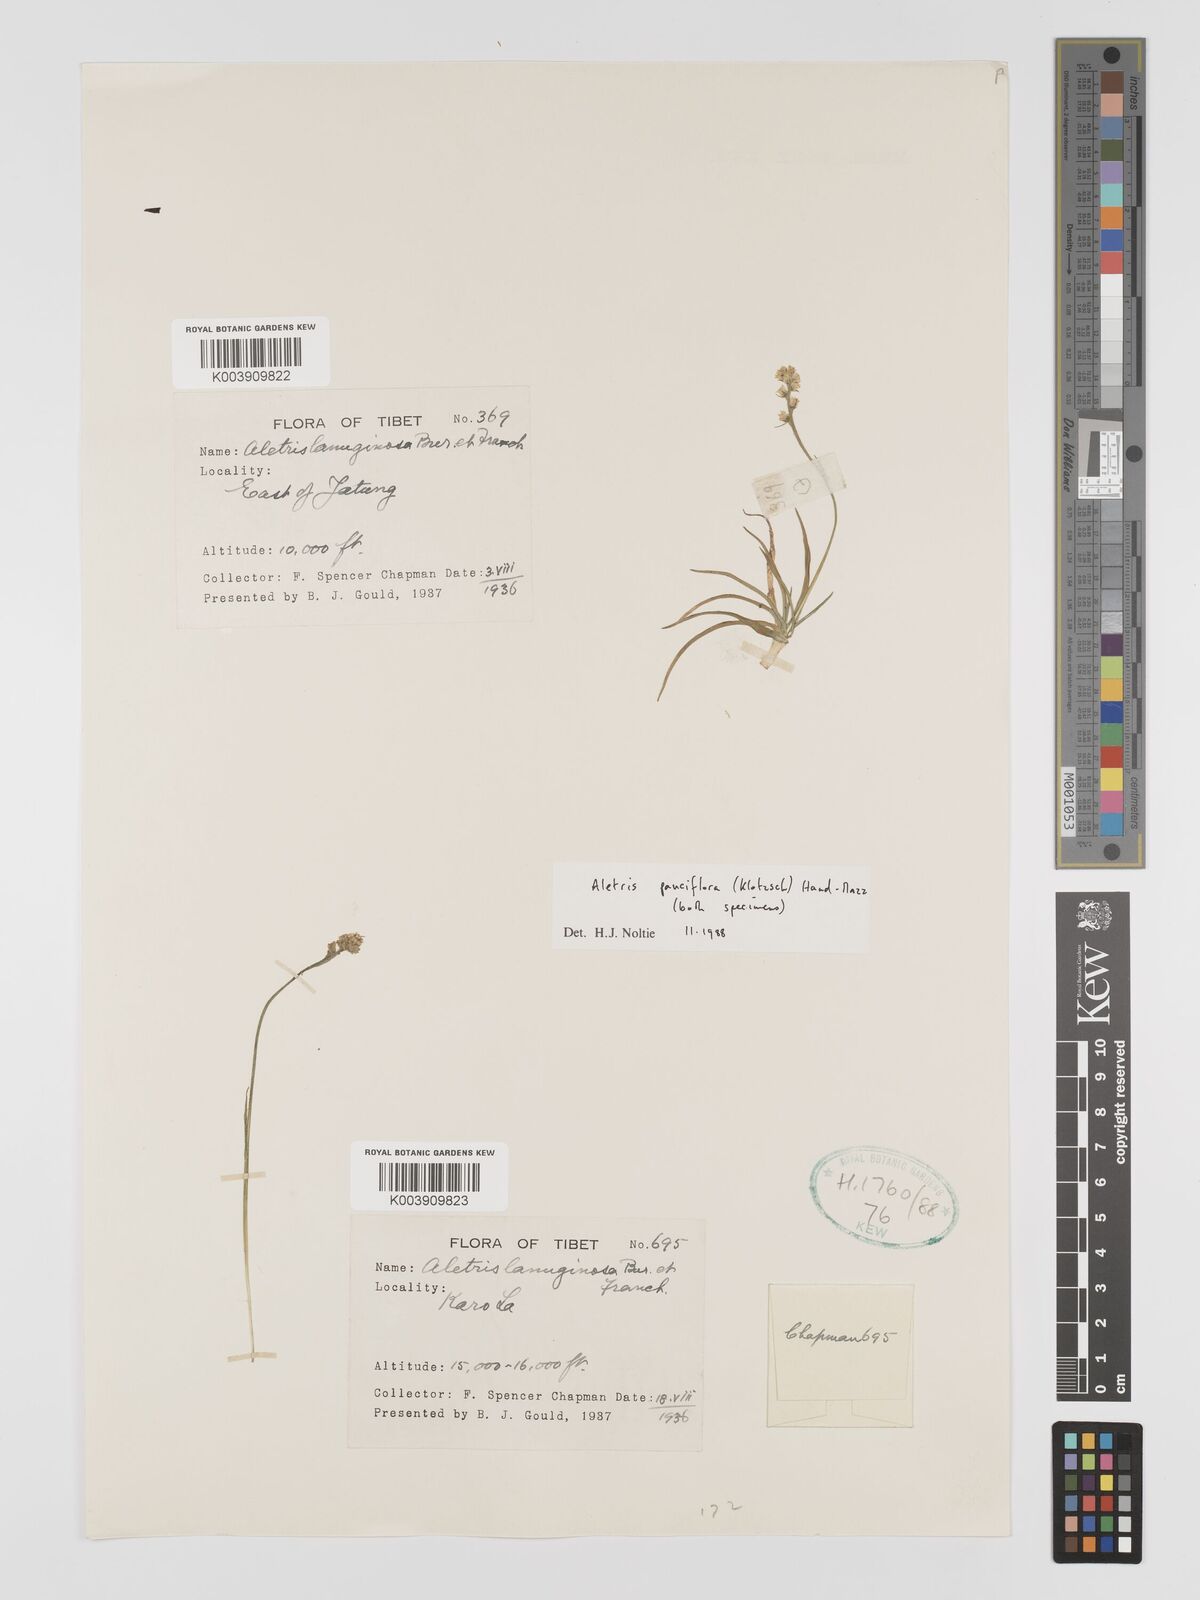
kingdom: Plantae
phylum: Tracheophyta
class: Liliopsida
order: Dioscoreales
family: Nartheciaceae
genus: Aletris
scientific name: Aletris pauciflora
